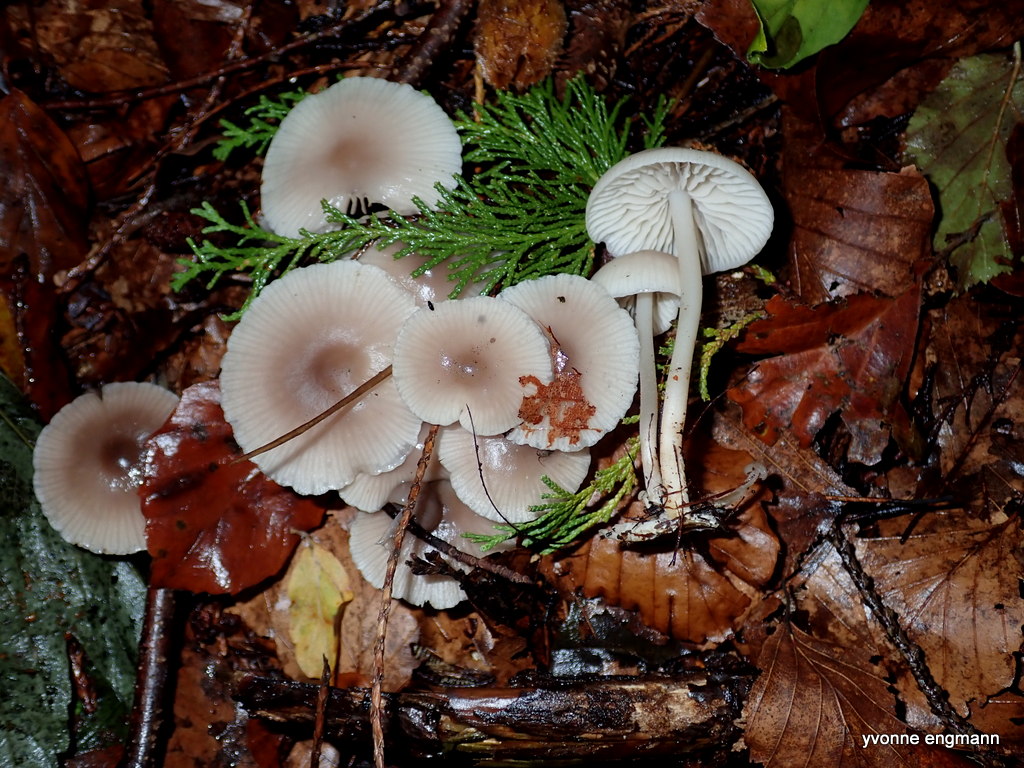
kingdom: Fungi
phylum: Basidiomycota
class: Agaricomycetes
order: Agaricales
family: Mycenaceae
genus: Mycena
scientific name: Mycena
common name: huesvamp
